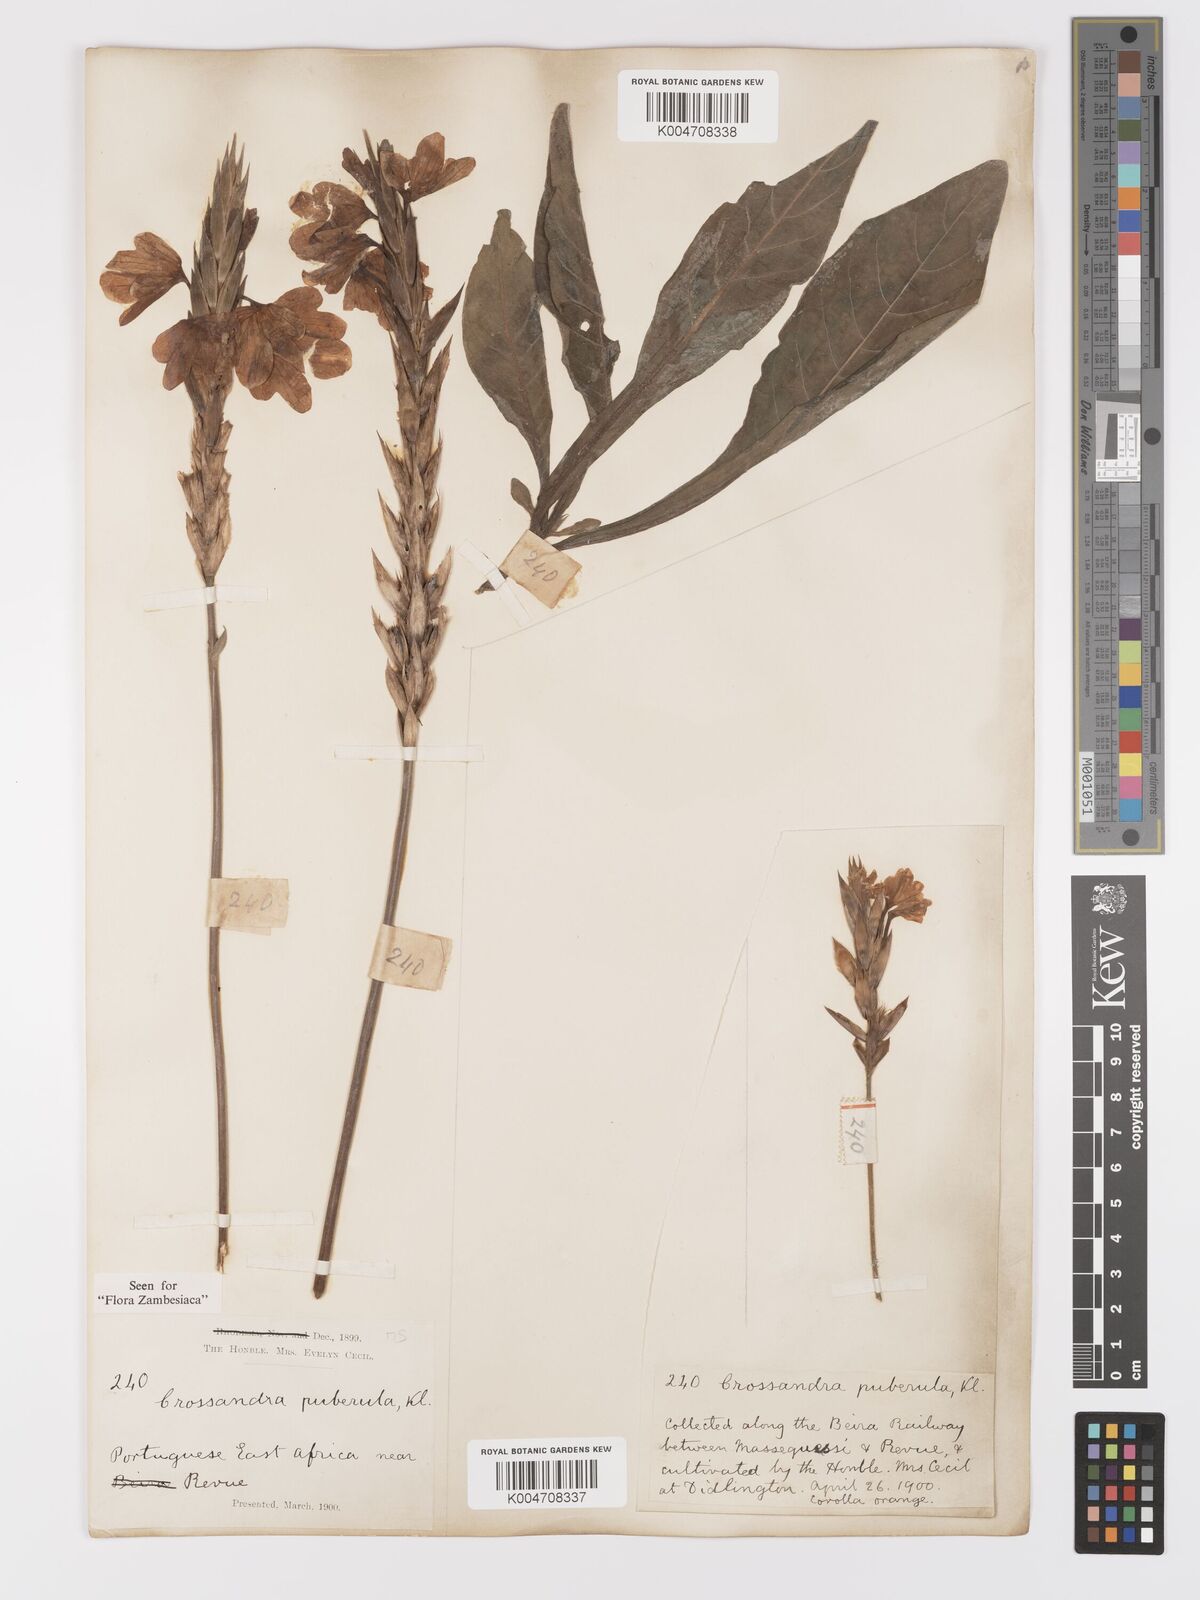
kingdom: Plantae
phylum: Tracheophyta
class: Magnoliopsida
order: Lamiales
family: Acanthaceae
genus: Crossandra
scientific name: Crossandra puberula
